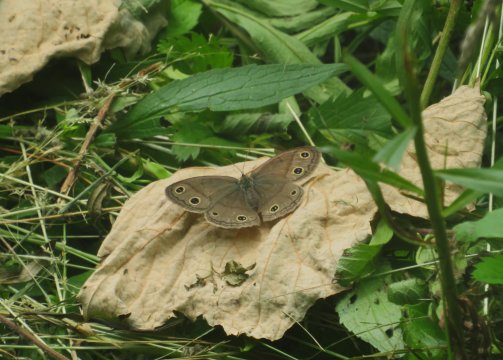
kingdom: Animalia
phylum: Arthropoda
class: Insecta
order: Lepidoptera
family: Nymphalidae
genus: Euptychia
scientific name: Euptychia cymela
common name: Little Wood Satyr
